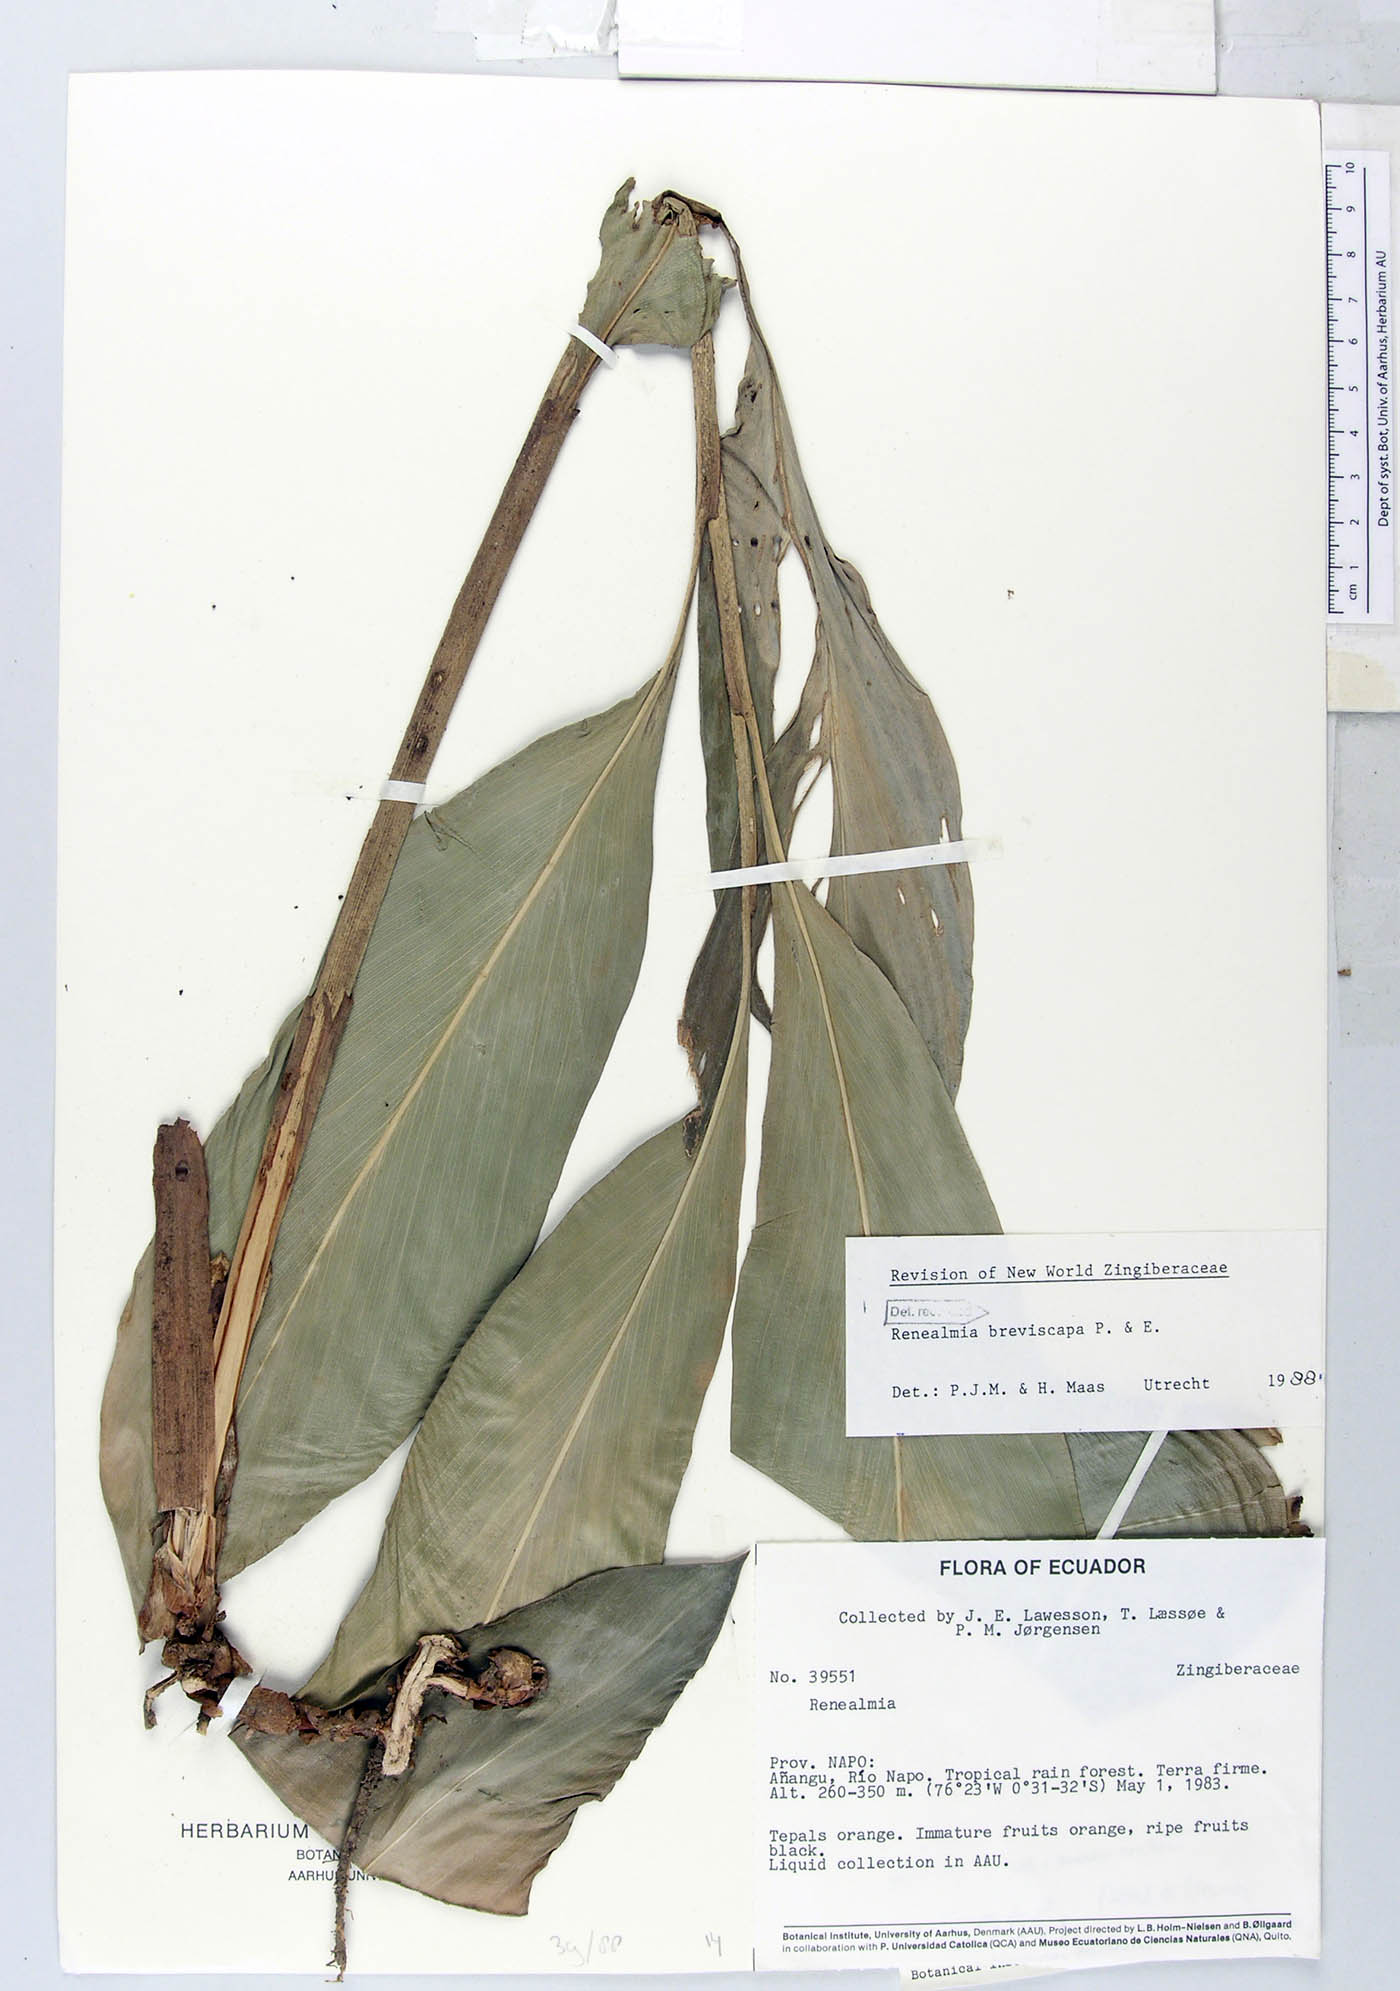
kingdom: Plantae
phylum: Tracheophyta
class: Liliopsida
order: Zingiberales
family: Zingiberaceae
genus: Renealmia
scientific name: Renealmia breviscapa
